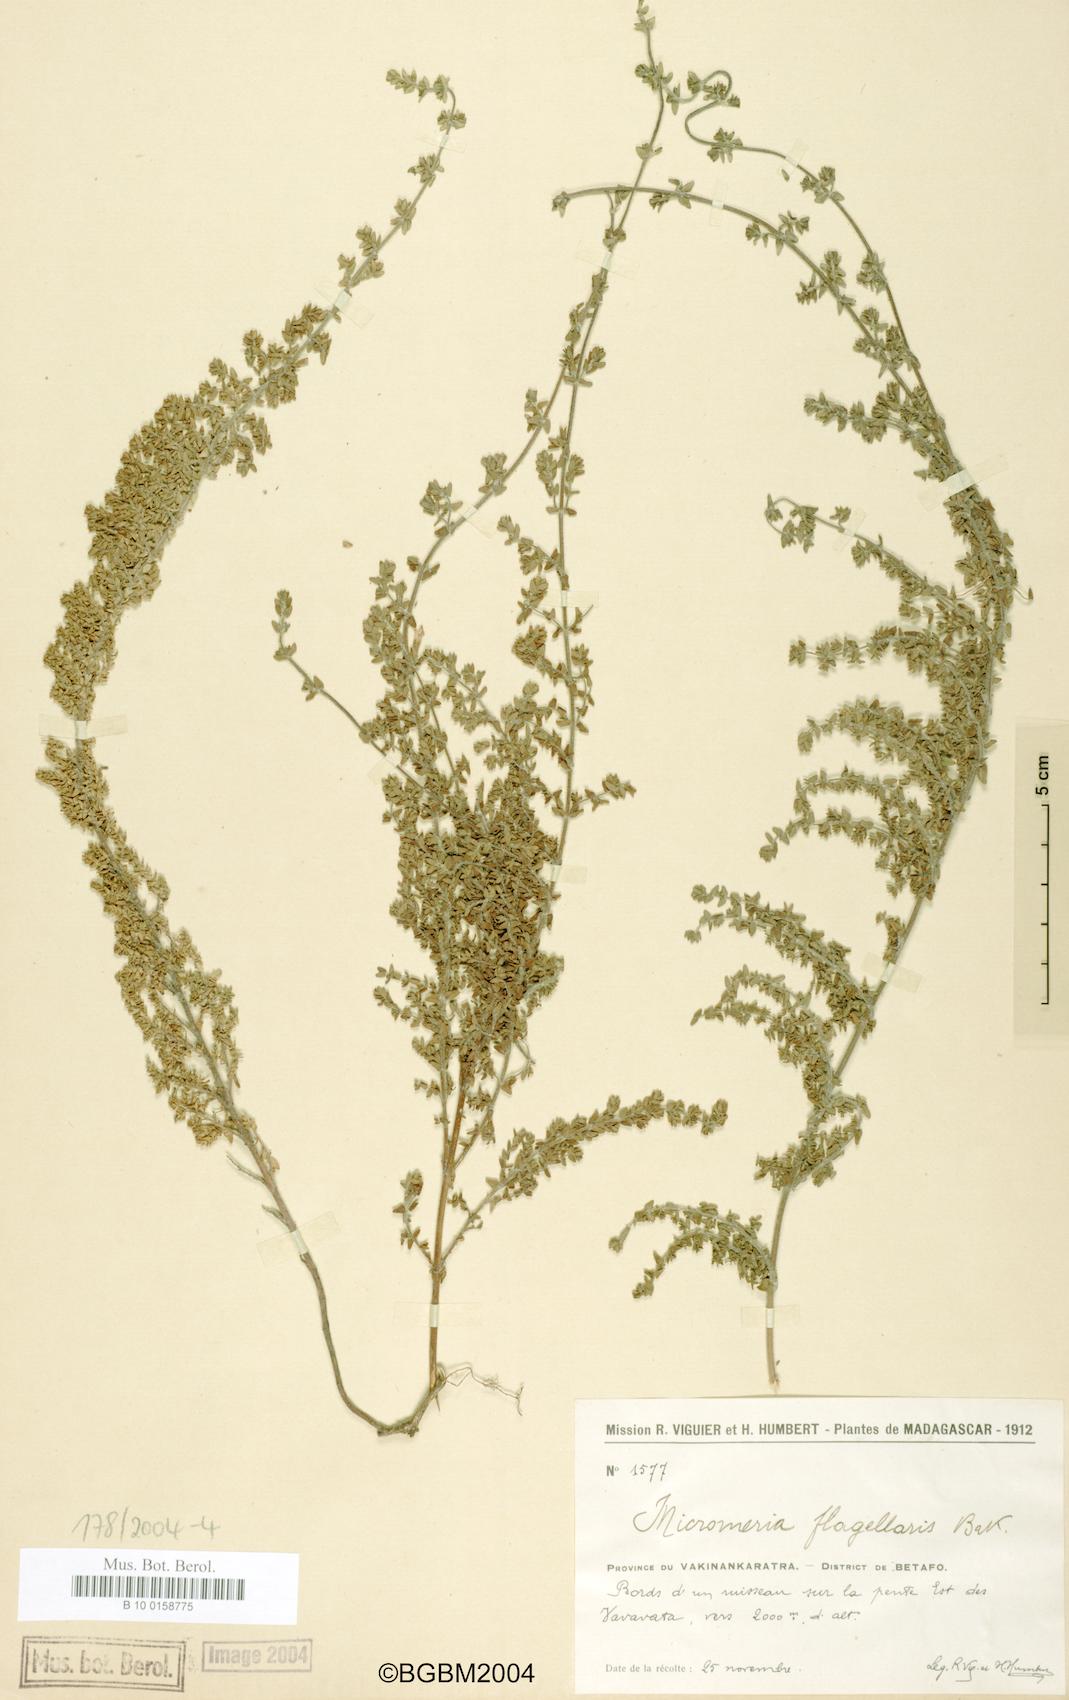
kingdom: Plantae
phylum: Tracheophyta
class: Magnoliopsida
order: Lamiales
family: Lamiaceae
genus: Micromeria
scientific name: Micromeria flagellaris
